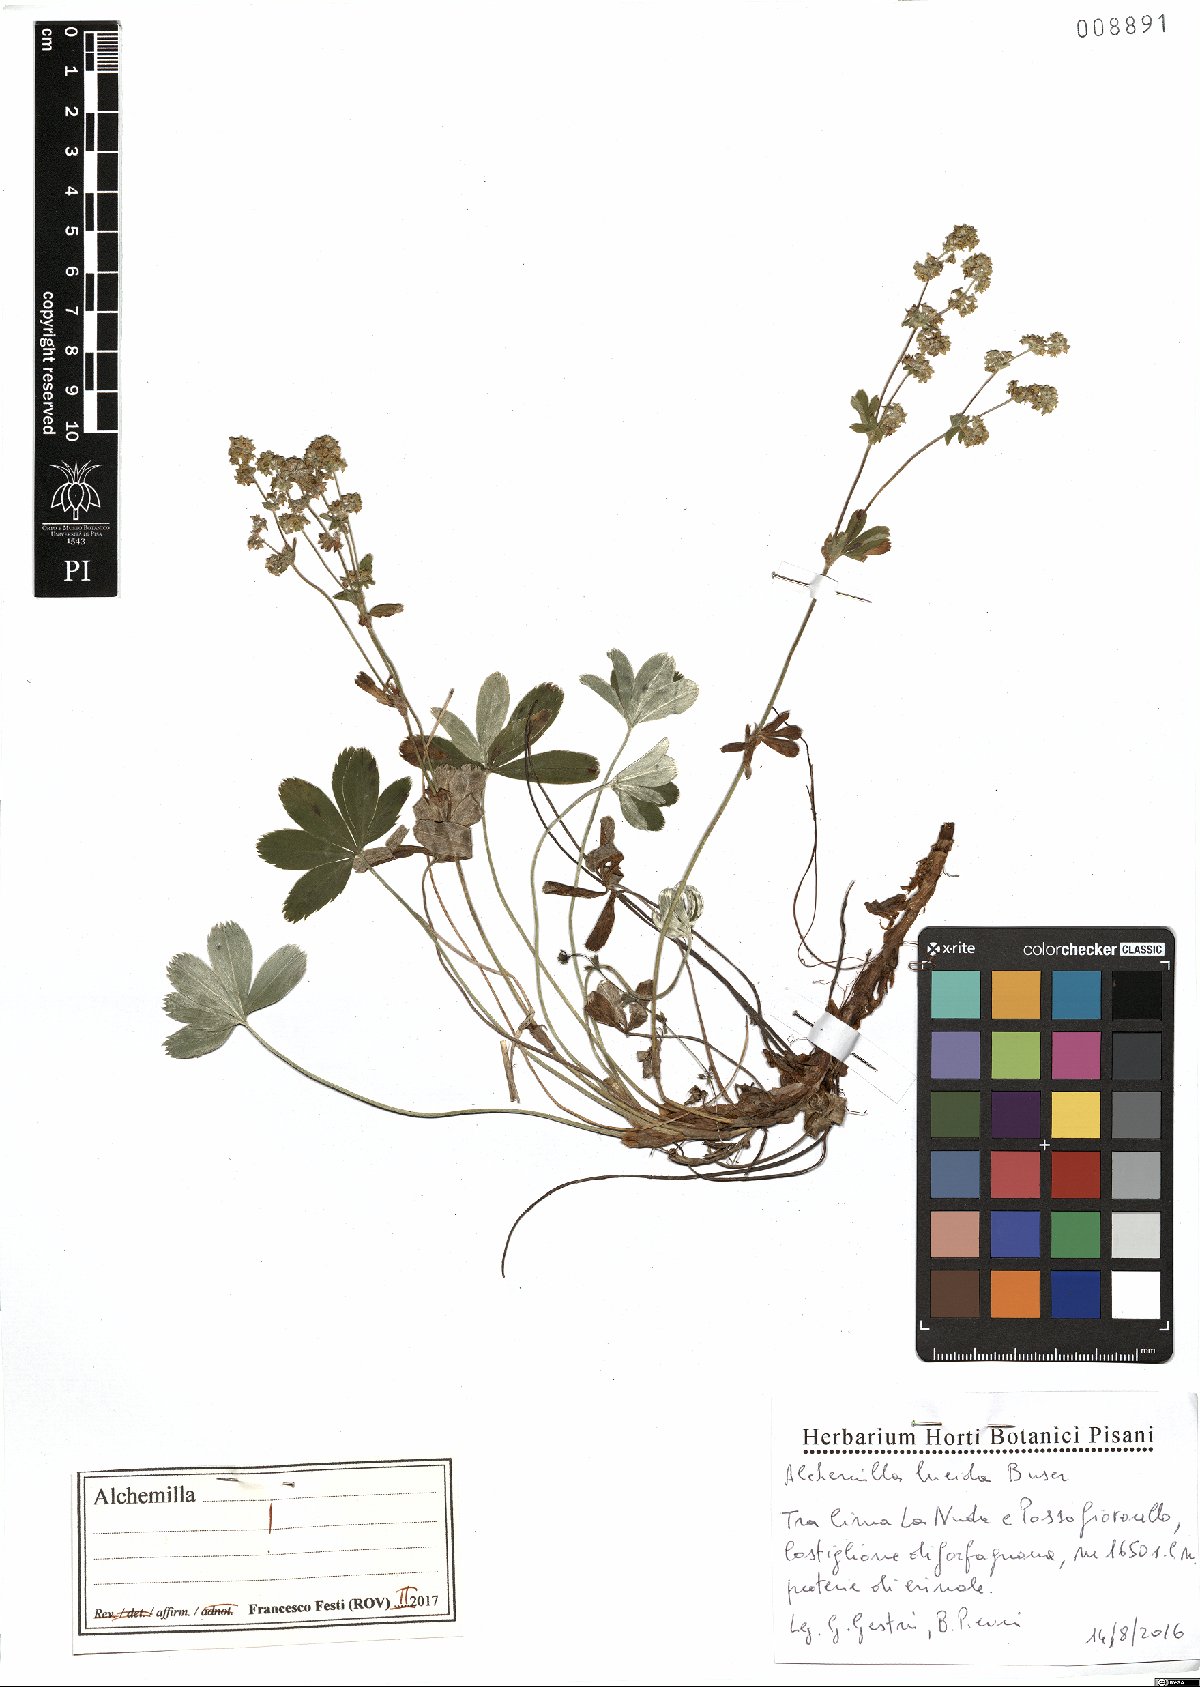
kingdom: Plantae
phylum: Tracheophyta
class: Magnoliopsida
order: Rosales
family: Rosaceae
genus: Alchemilla
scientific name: Alchemilla lucida
